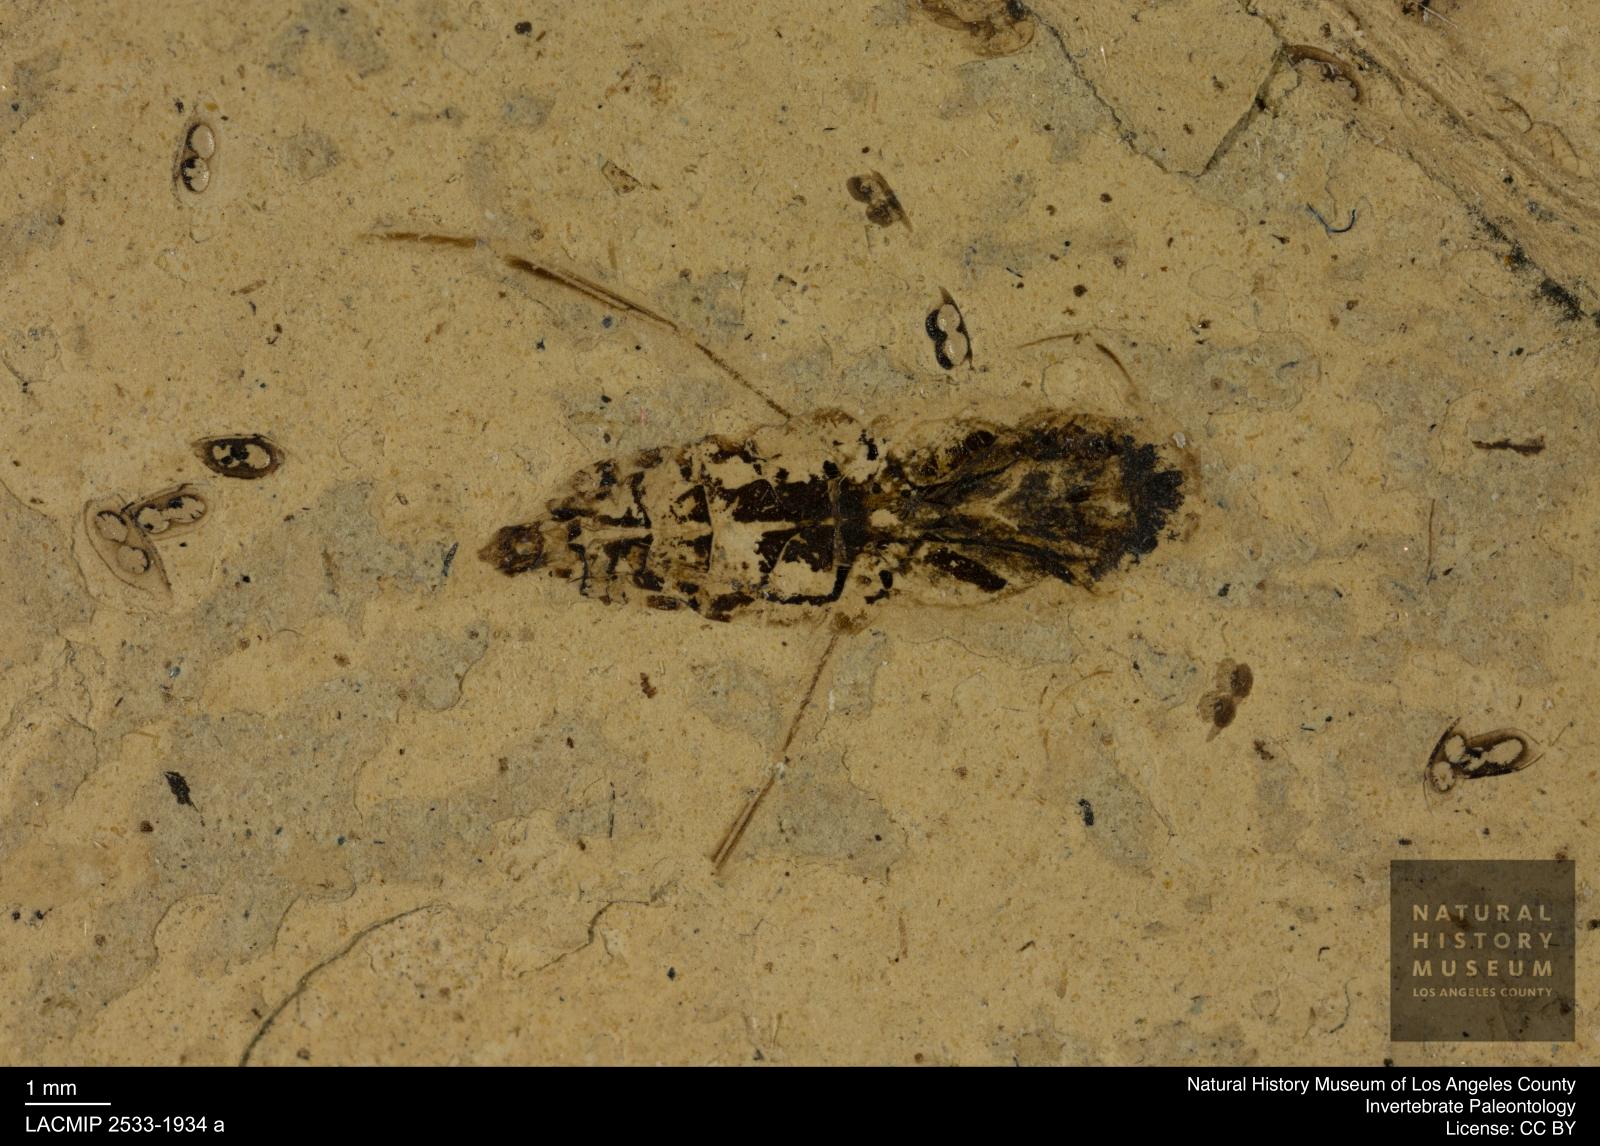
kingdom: Animalia
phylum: Arthropoda
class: Insecta
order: Hemiptera
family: Notonectidae
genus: Anisops
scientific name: Anisops Notonecta deichmuelleri
